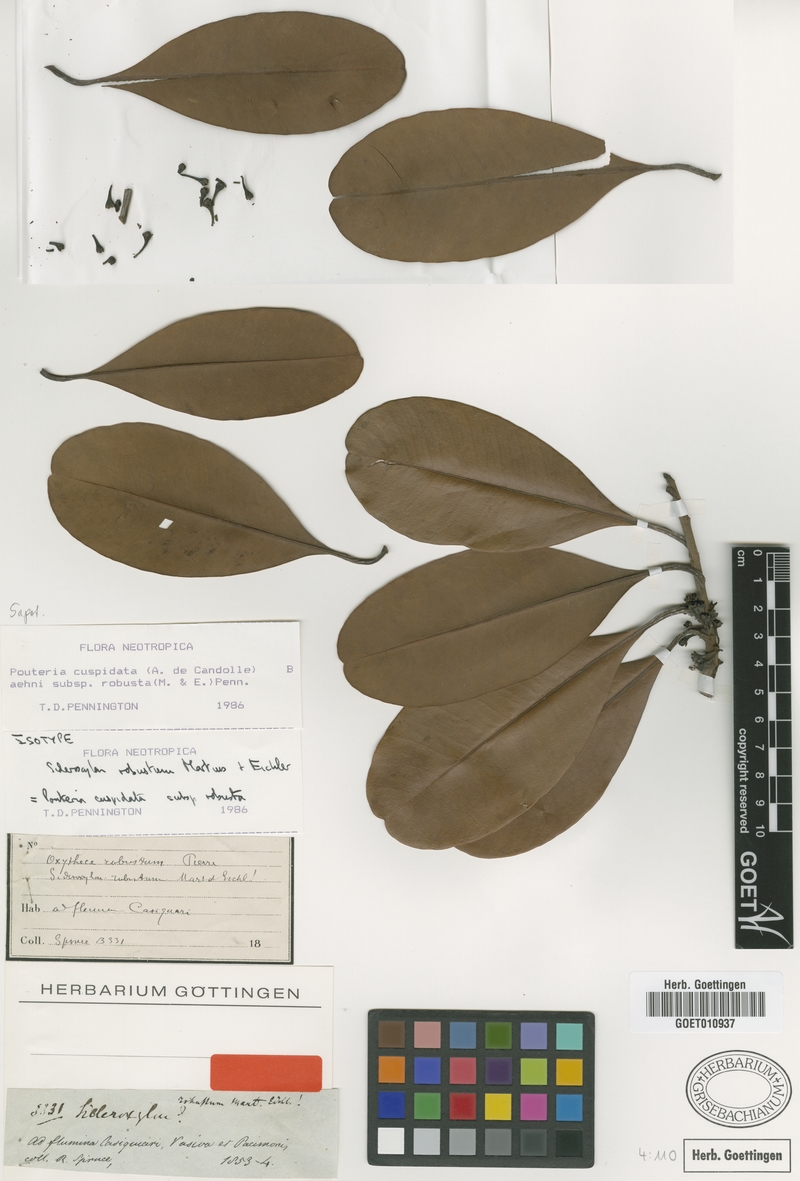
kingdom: Plantae
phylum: Tracheophyta
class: Magnoliopsida
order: Ericales
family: Sapotaceae
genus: Pouteria
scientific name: Pouteria cuspidata
